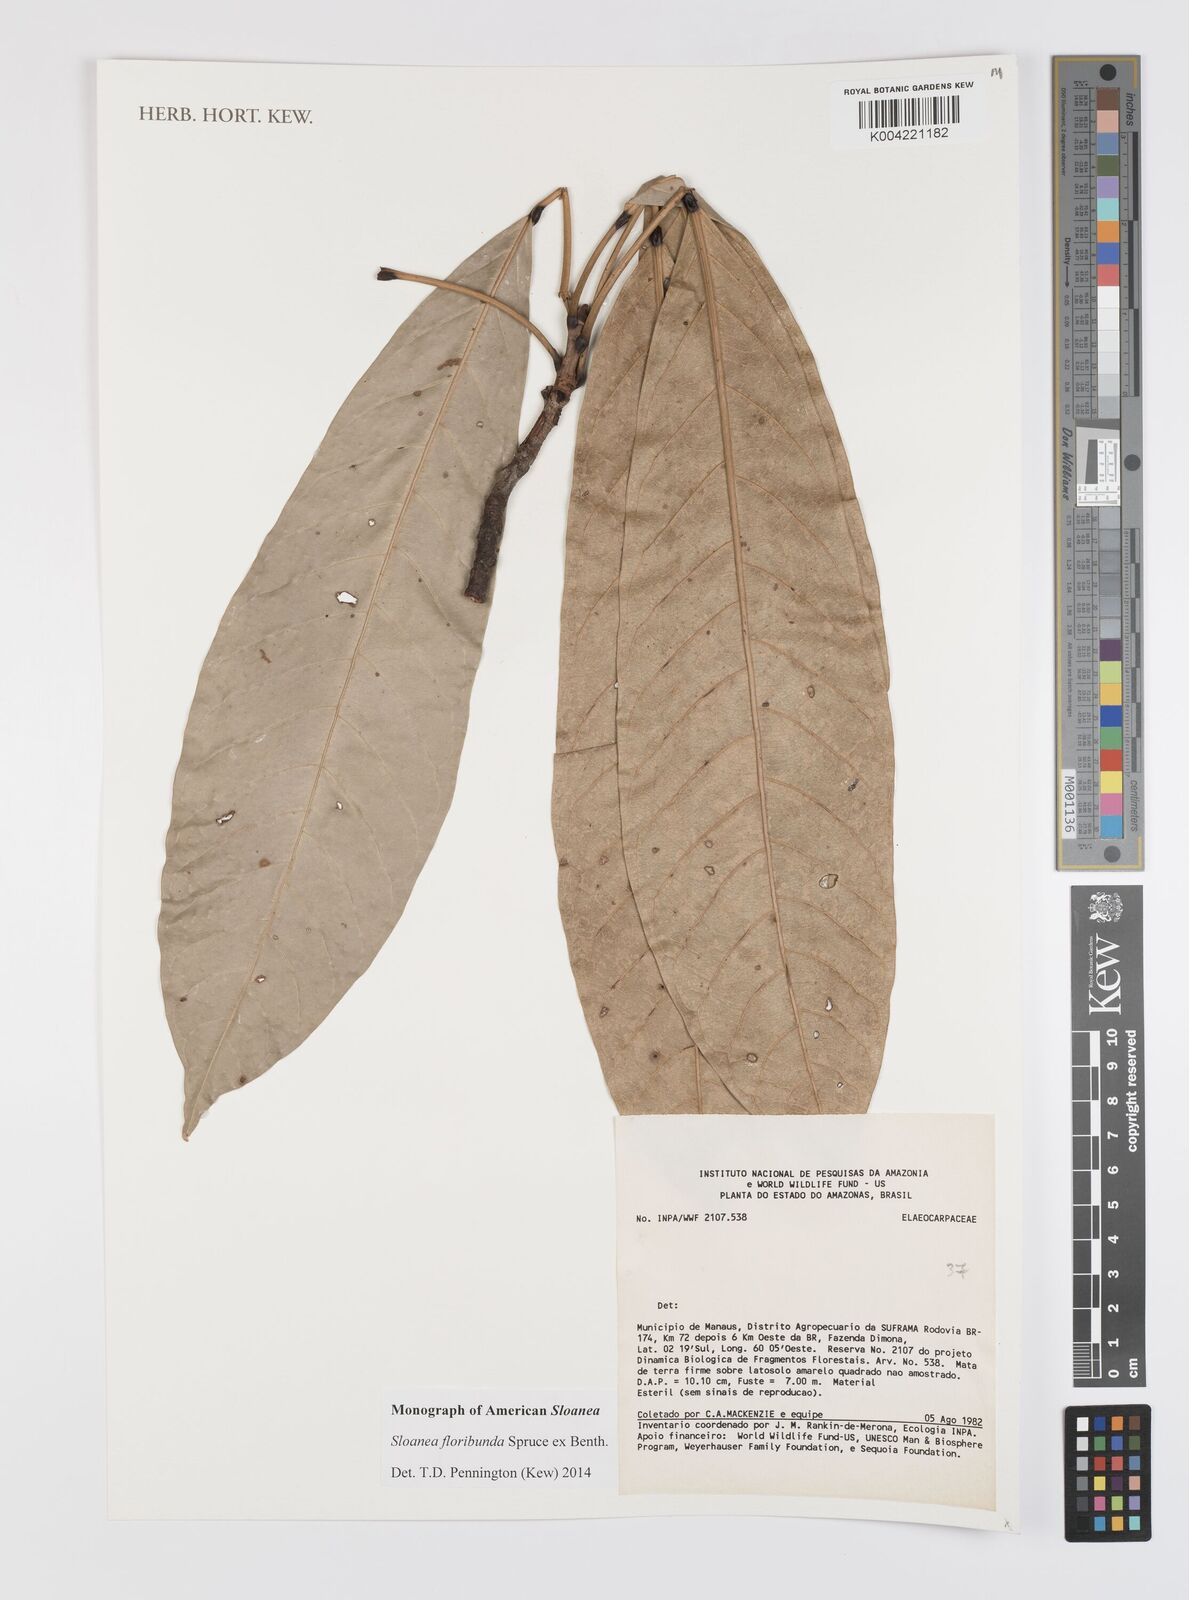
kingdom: Plantae
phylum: Tracheophyta
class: Magnoliopsida
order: Oxalidales
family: Elaeocarpaceae
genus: Sloanea
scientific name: Sloanea floribunda
